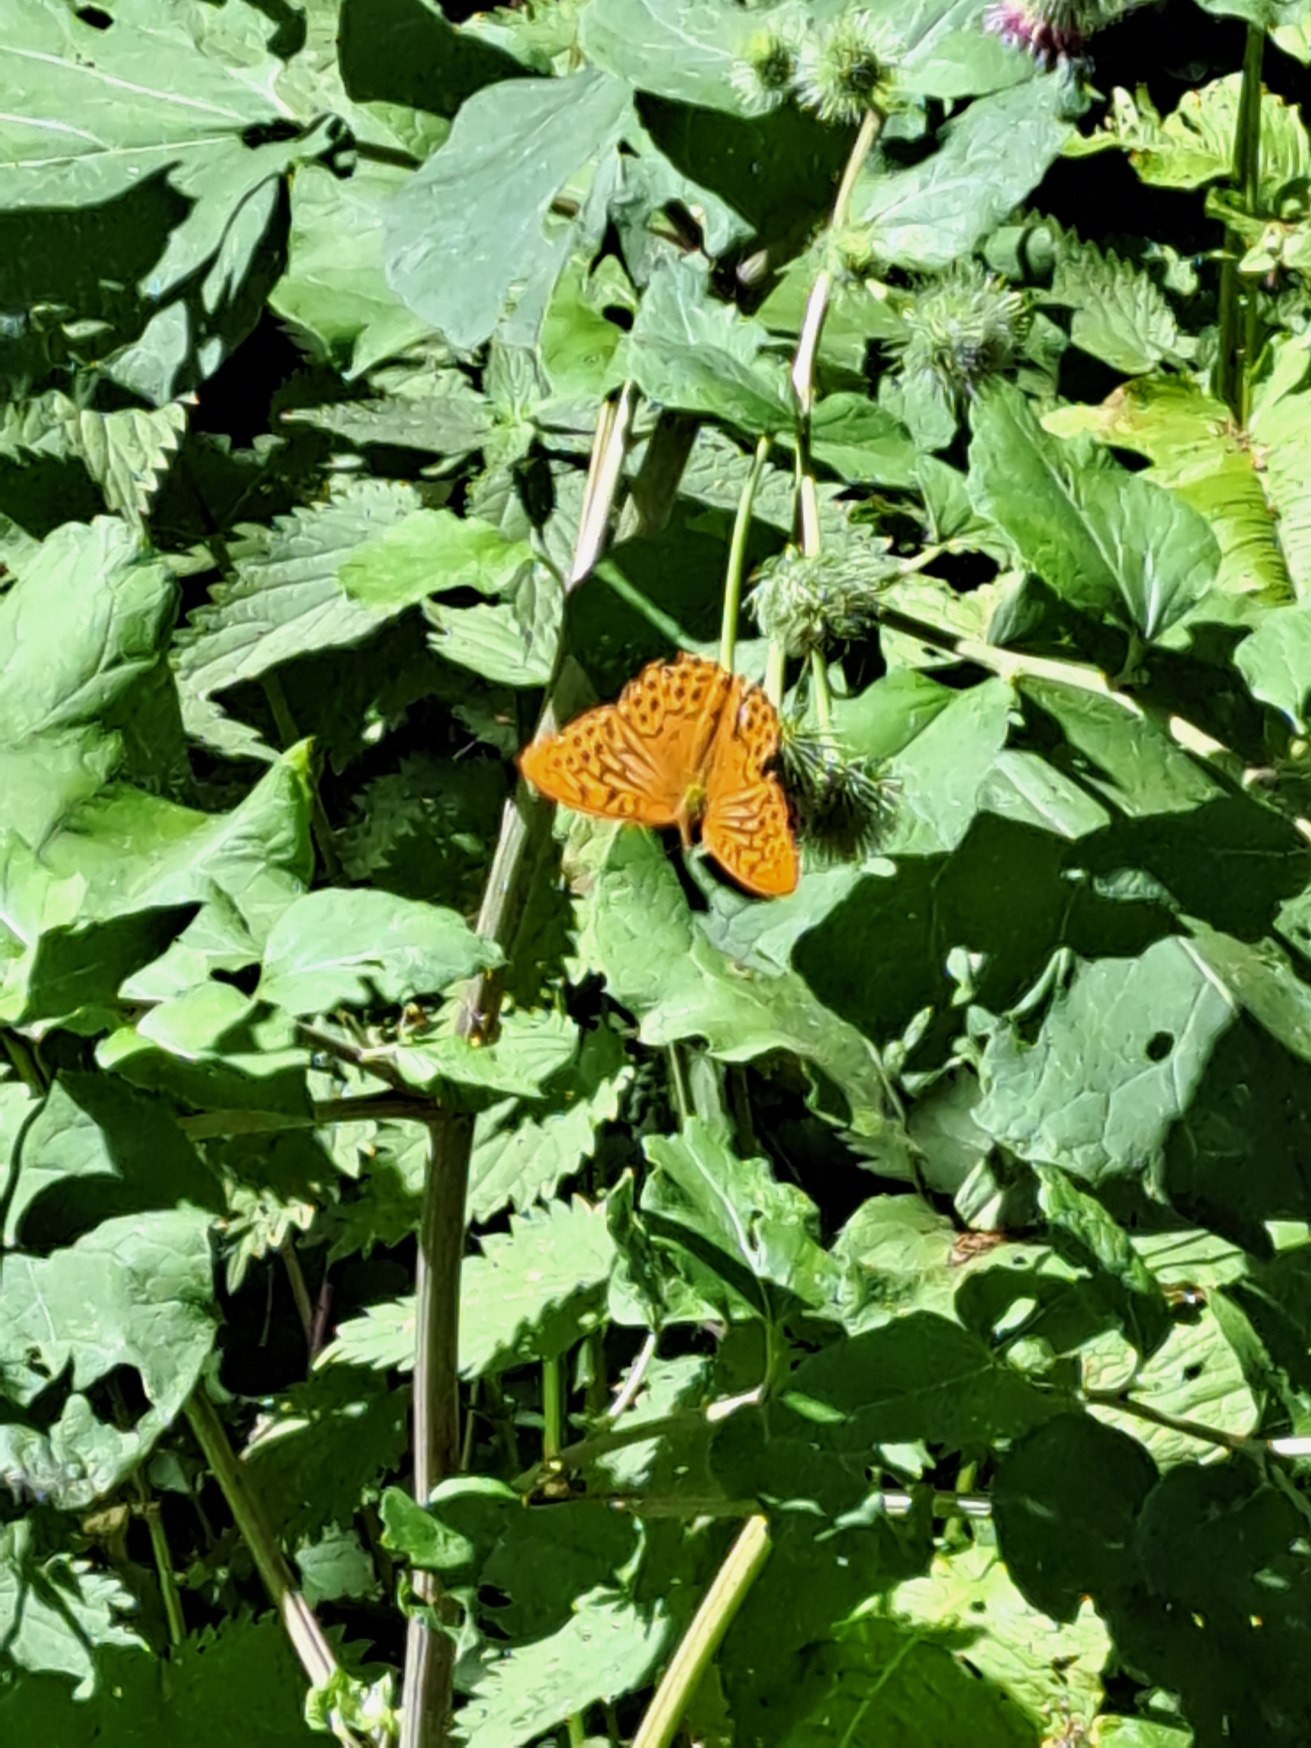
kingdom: Animalia
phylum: Arthropoda
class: Insecta
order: Lepidoptera
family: Nymphalidae
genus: Argynnis
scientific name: Argynnis paphia
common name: Kejserkåbe
